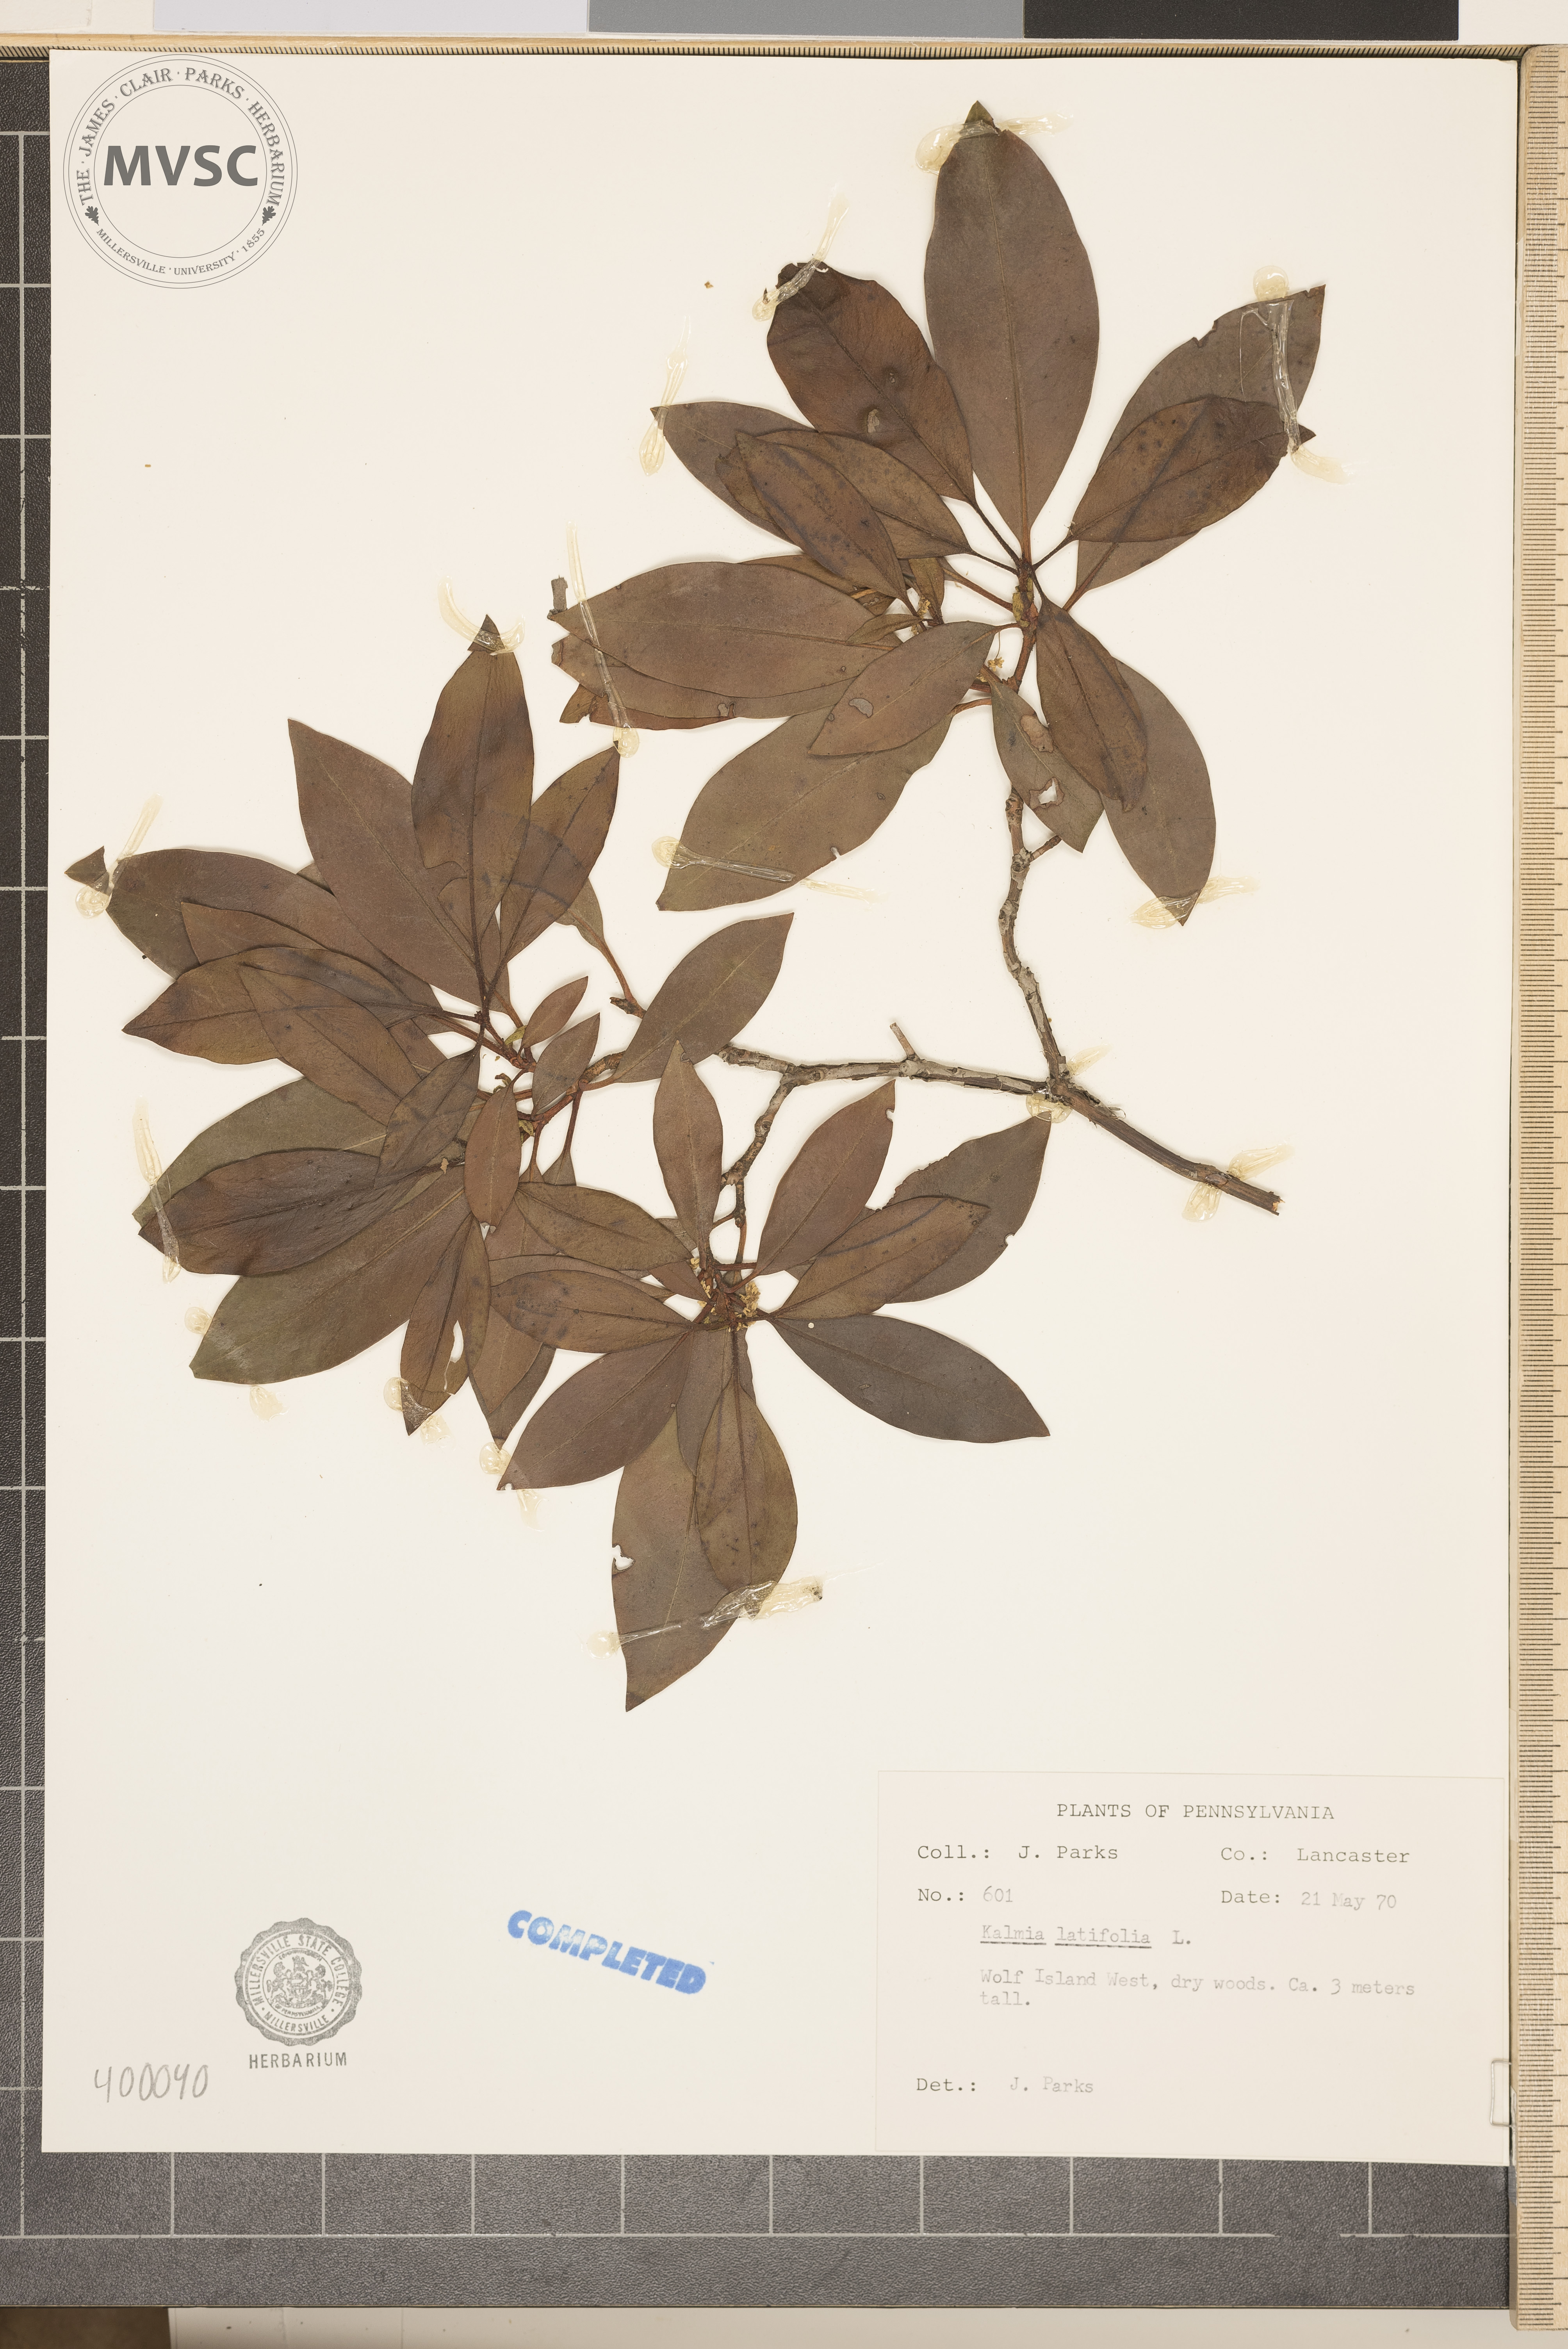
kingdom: Plantae
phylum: Tracheophyta
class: Magnoliopsida
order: Ericales
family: Ericaceae
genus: Kalmia
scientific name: Kalmia latifolia
